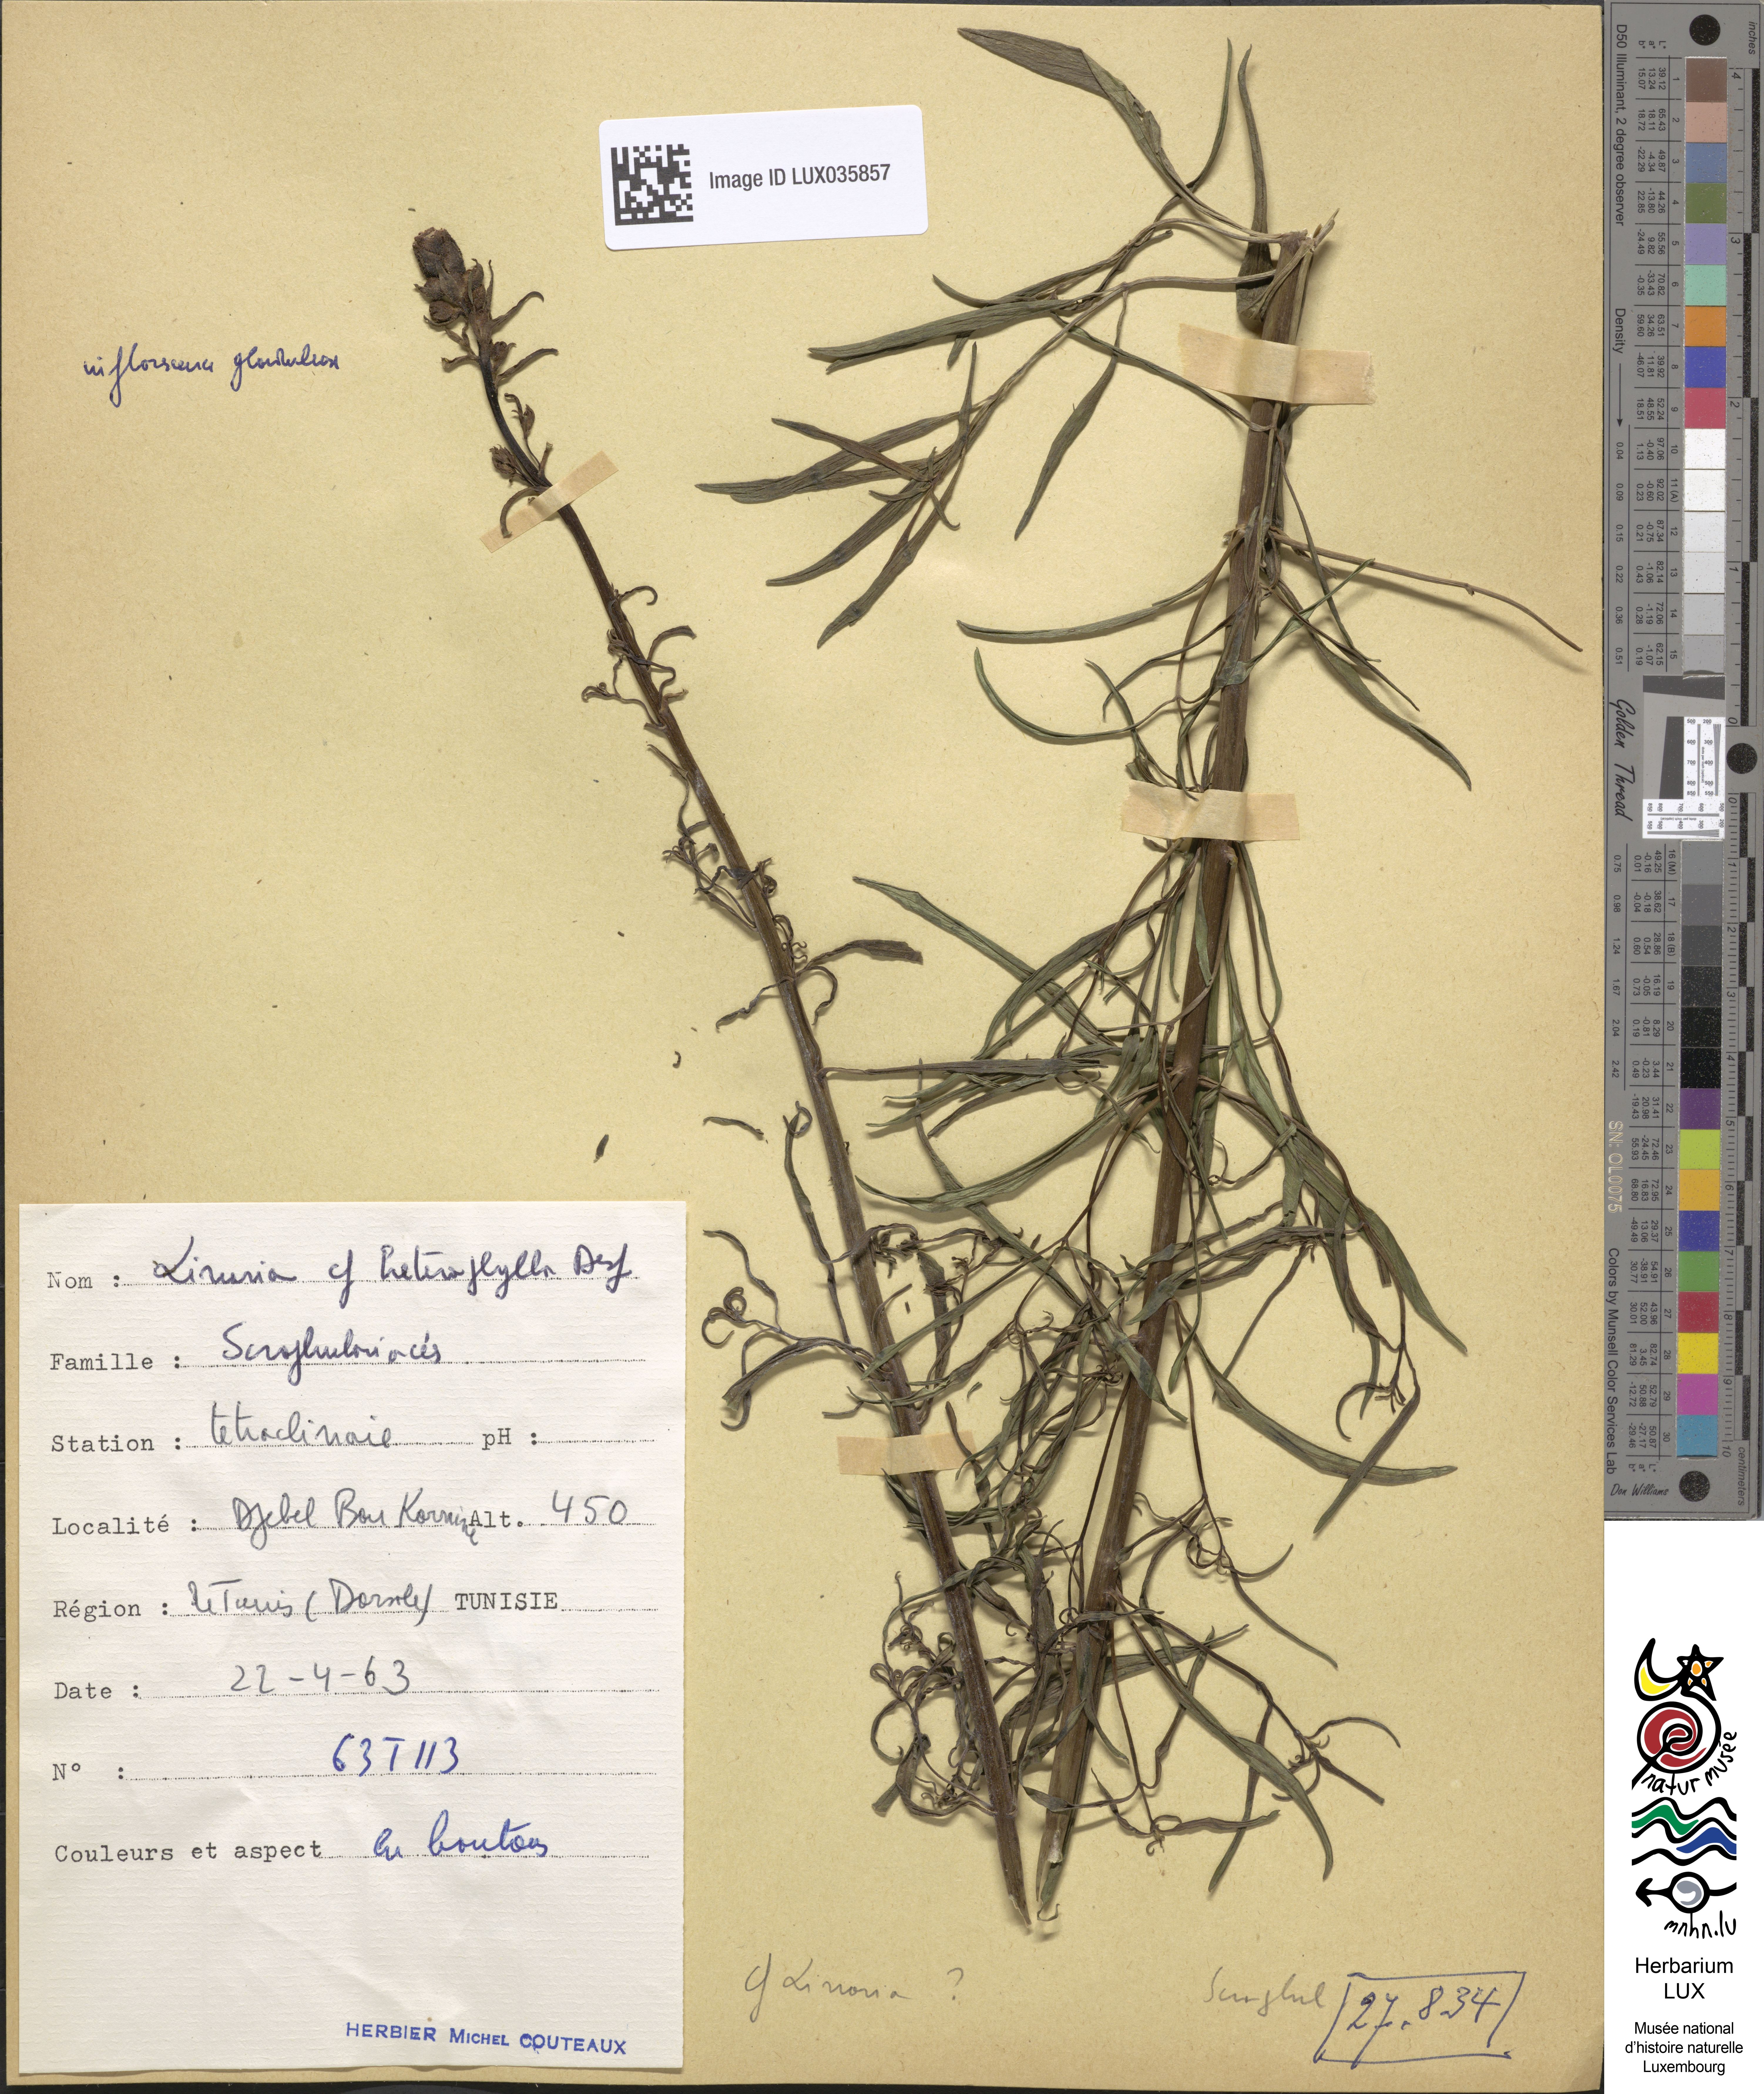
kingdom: Plantae
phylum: Tracheophyta
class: Magnoliopsida
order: Lamiales
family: Plantaginaceae
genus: Linaria
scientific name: Linaria multicaulis
